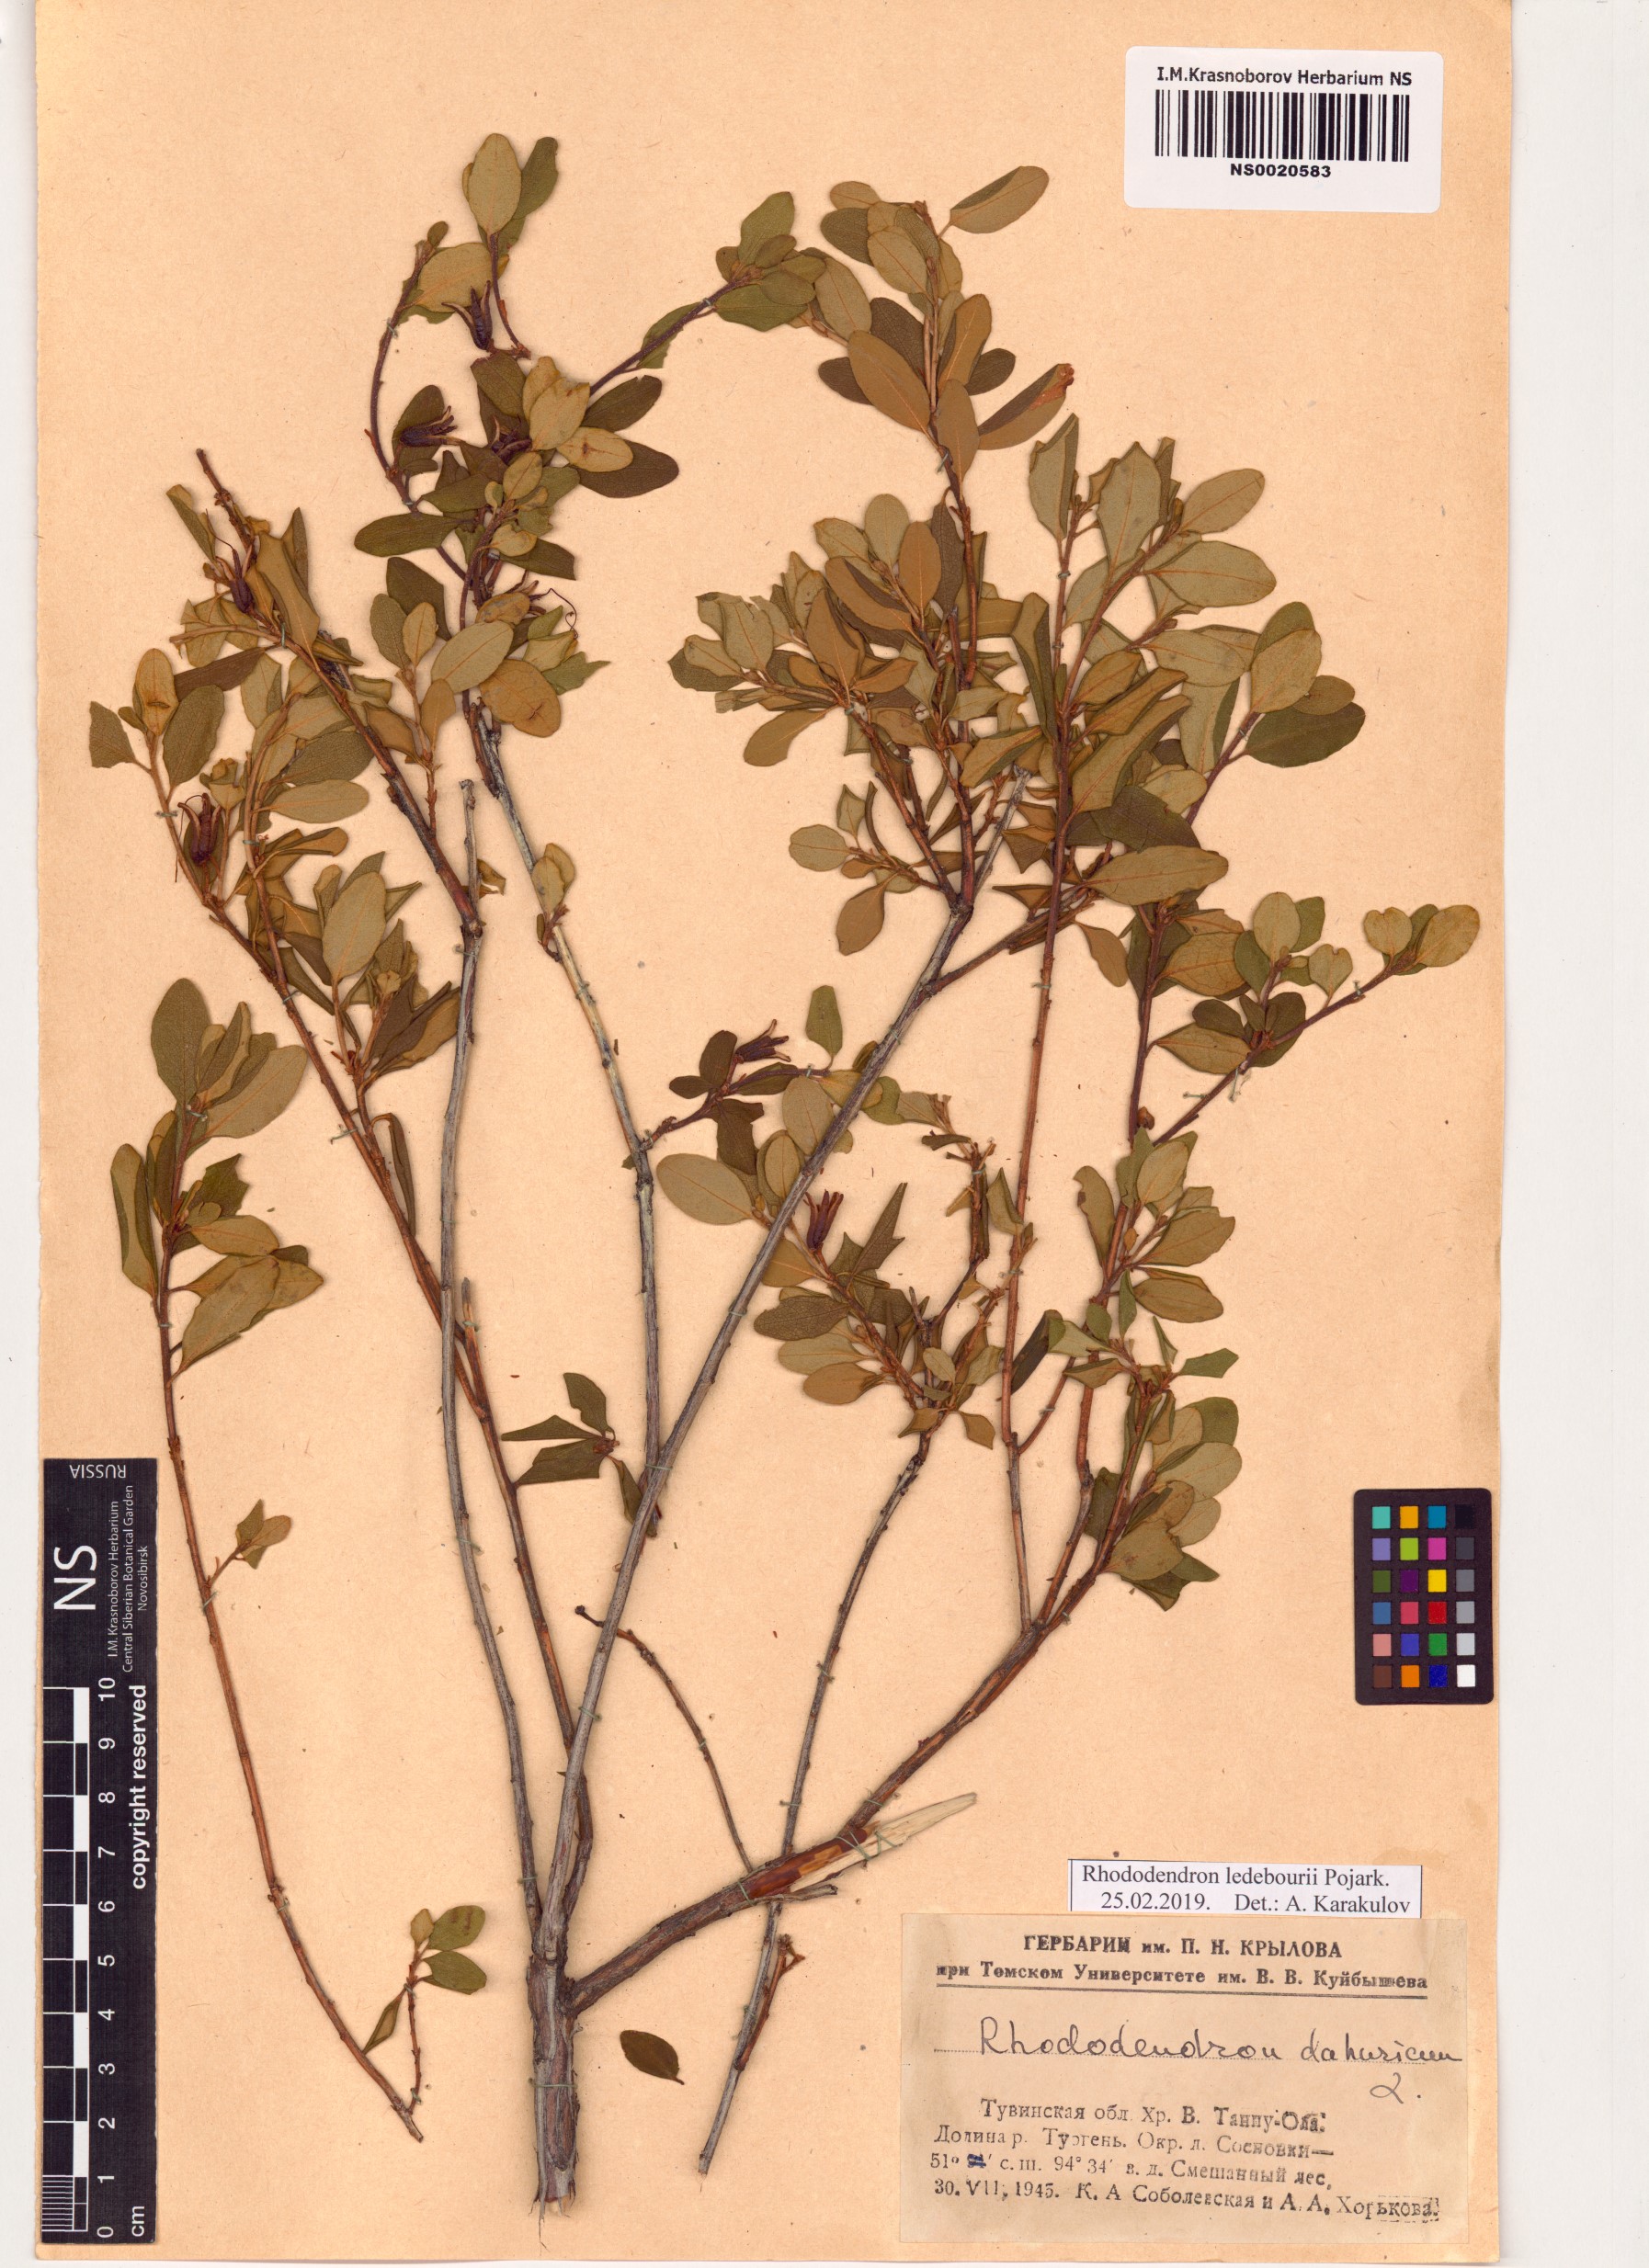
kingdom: Plantae
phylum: Tracheophyta
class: Magnoliopsida
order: Ericales
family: Ericaceae
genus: Rhododendron
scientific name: Rhododendron dauricum
